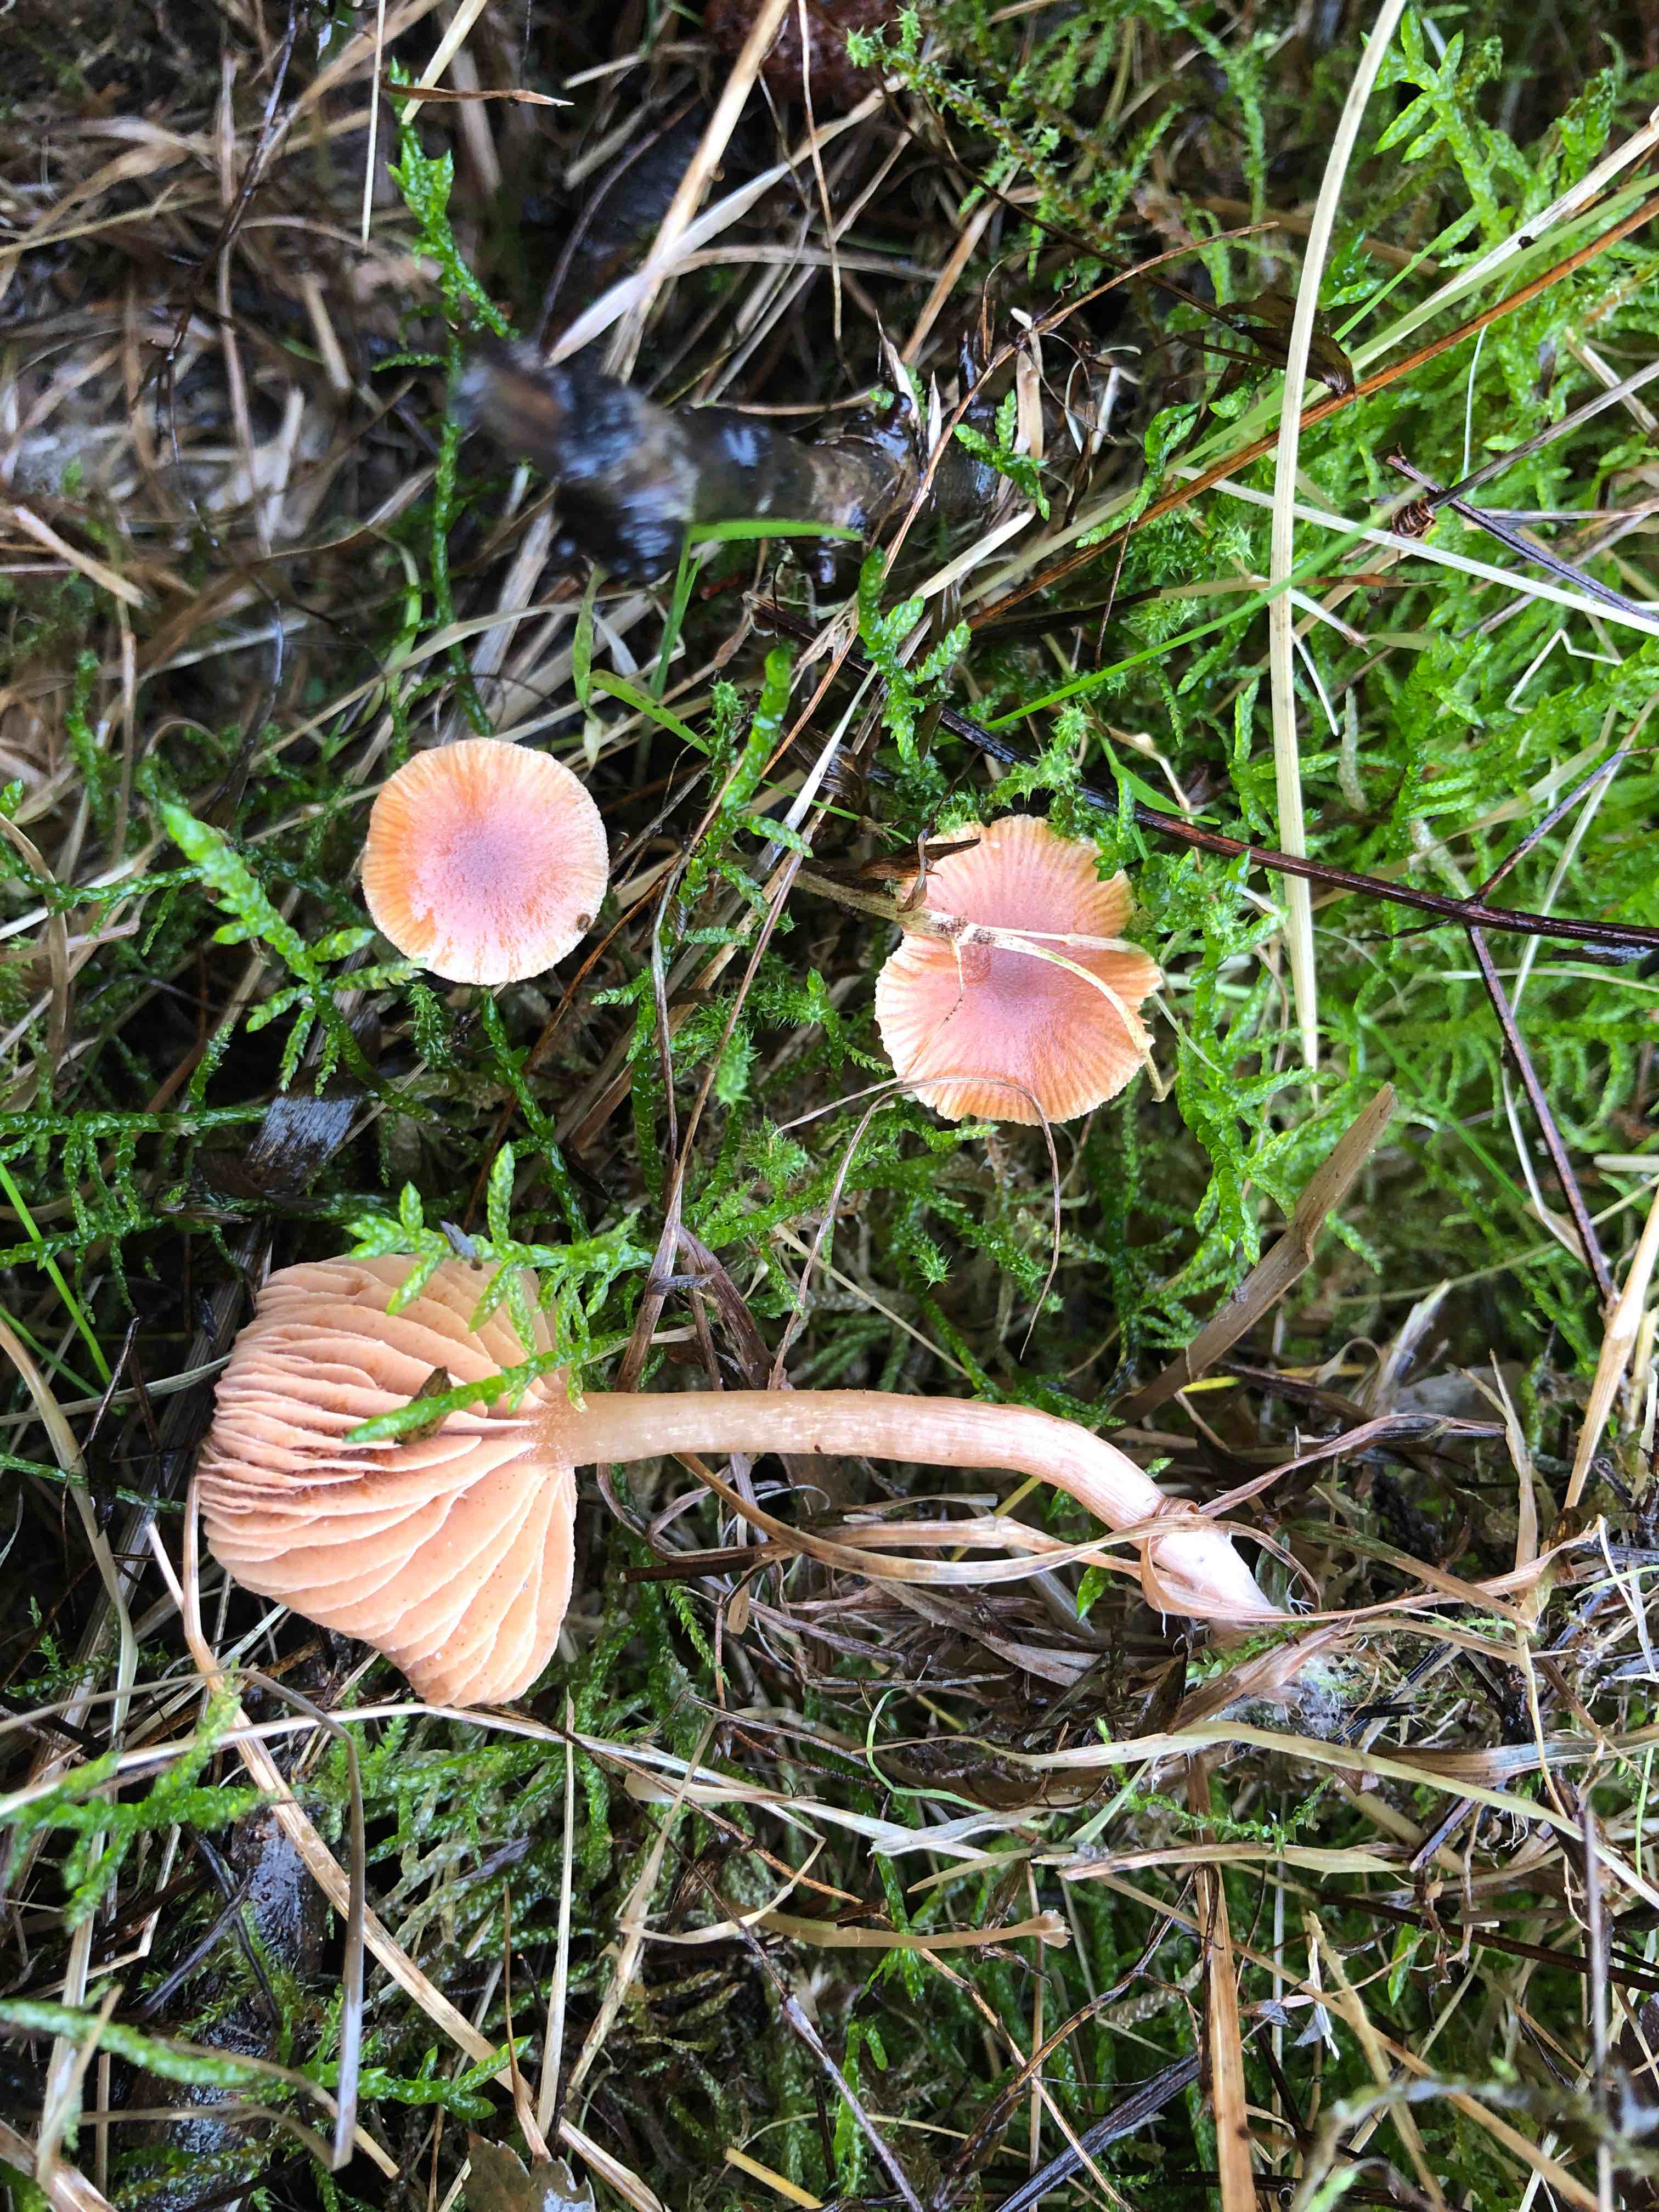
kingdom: Fungi
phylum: Basidiomycota
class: Agaricomycetes
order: Agaricales
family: Tubariaceae
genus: Tubaria
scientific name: Tubaria furfuracea
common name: kliddet fnughat
